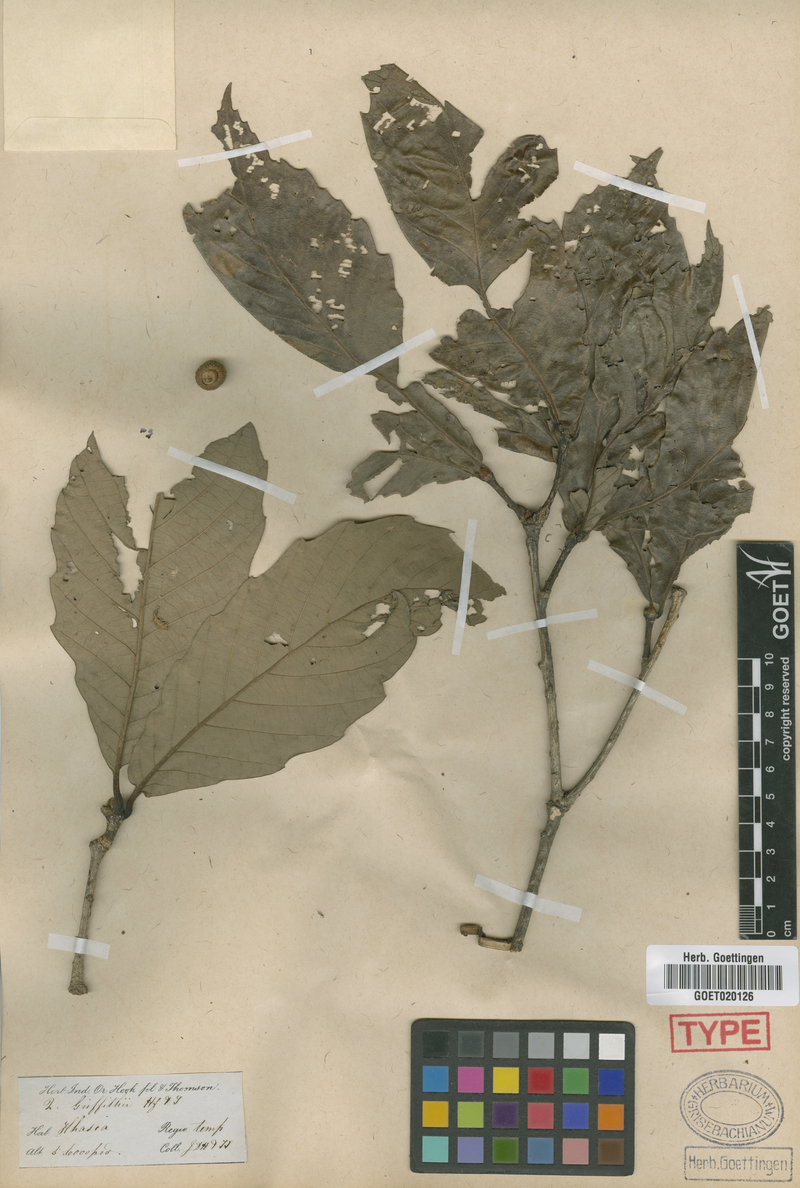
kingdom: Plantae
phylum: Tracheophyta
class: Magnoliopsida
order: Fagales
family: Fagaceae
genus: Quercus
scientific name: Quercus griffithii
